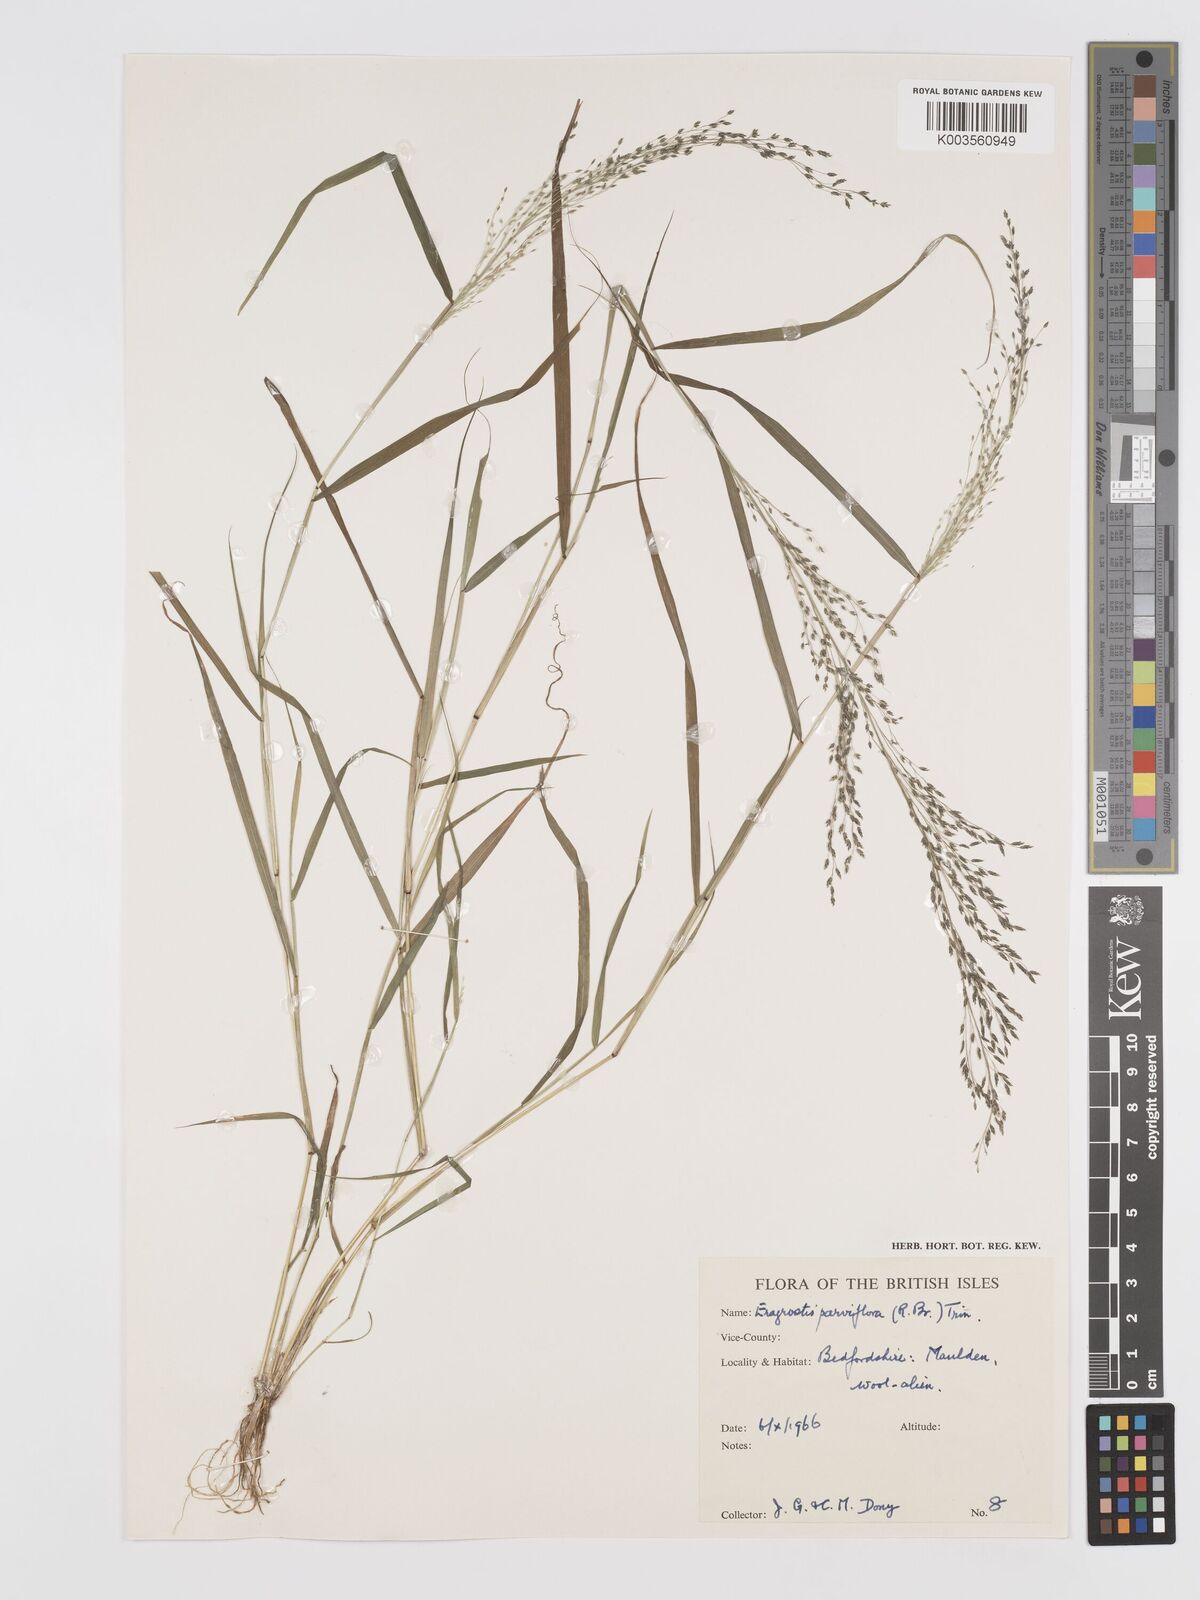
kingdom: Plantae
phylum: Tracheophyta
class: Liliopsida
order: Poales
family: Poaceae
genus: Eragrostis
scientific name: Eragrostis parviflora
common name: Weeping love-grass
